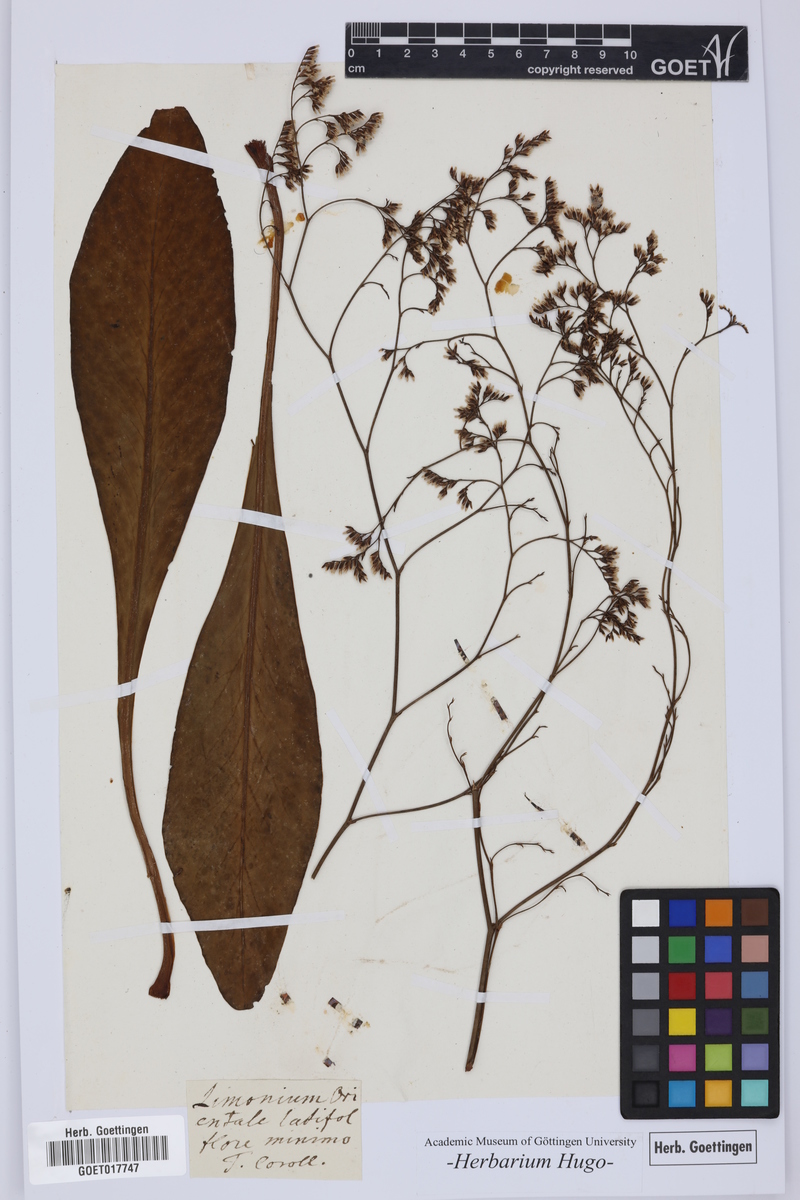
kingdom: Plantae
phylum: Tracheophyta
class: Magnoliopsida
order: Caryophyllales
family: Plumbaginaceae
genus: Limonium
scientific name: Limonium
